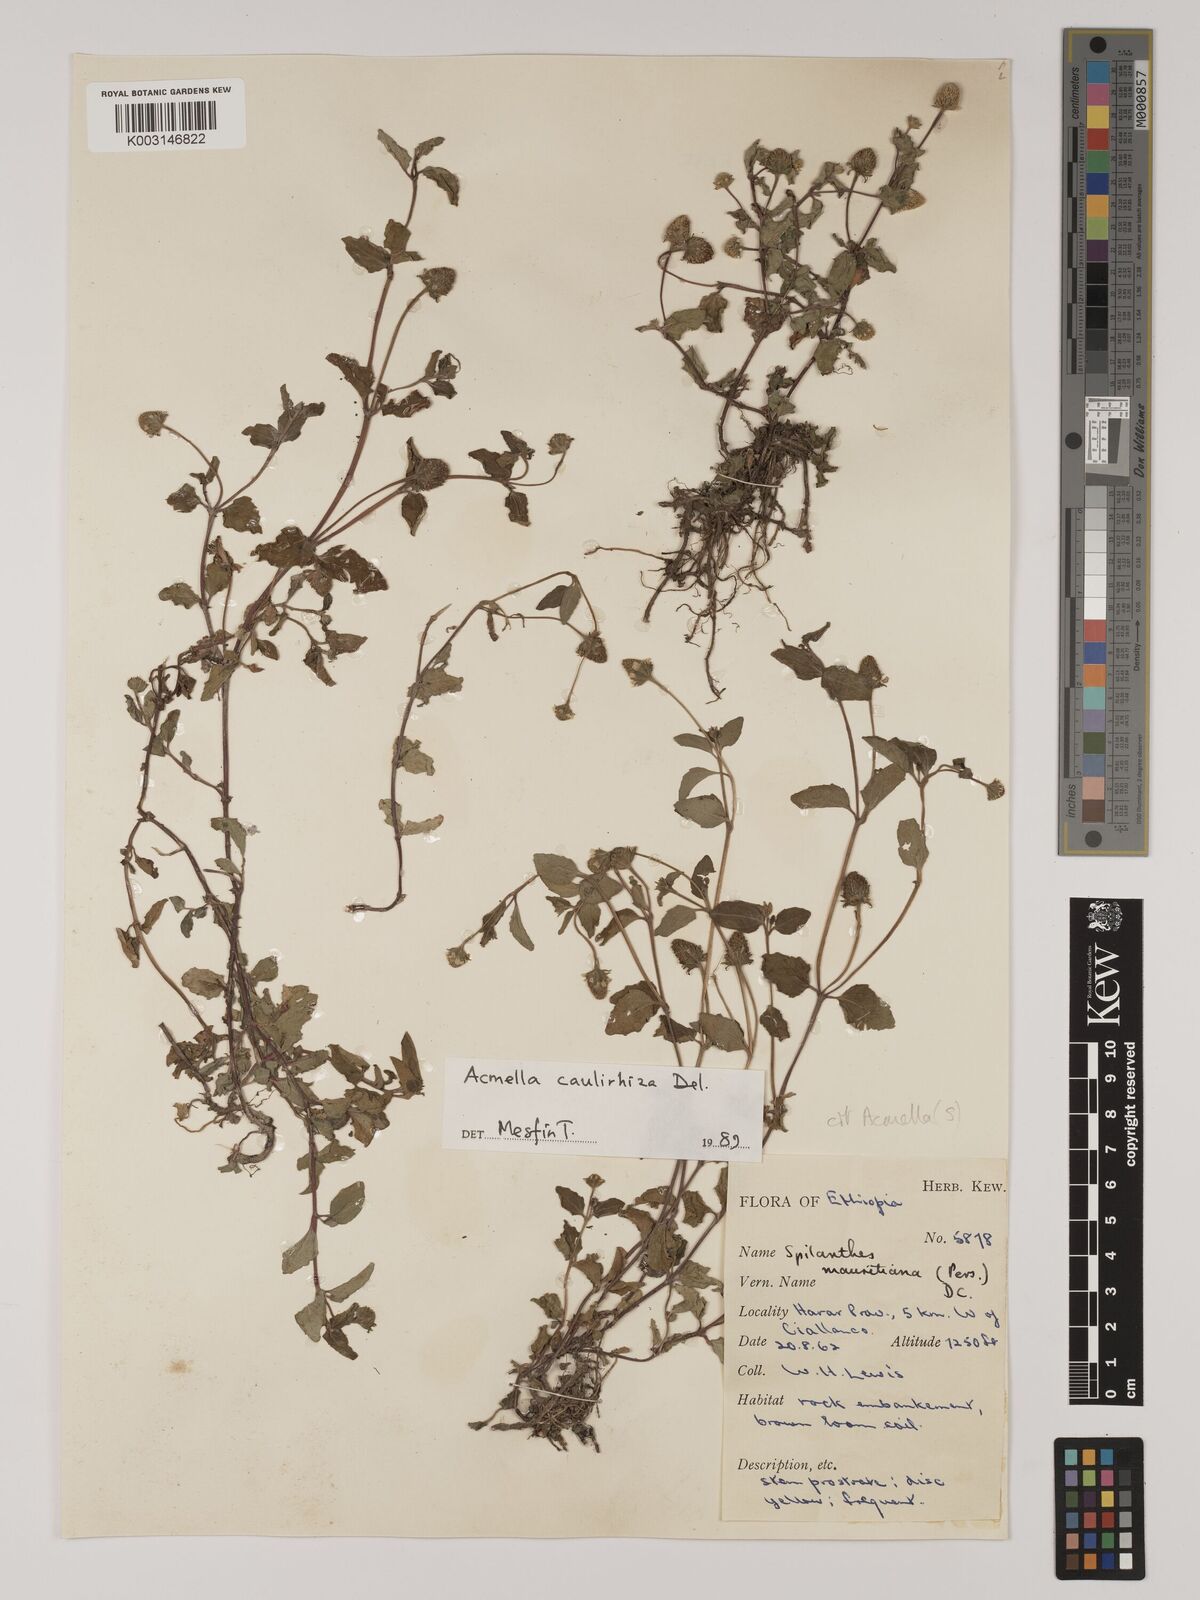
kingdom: Plantae
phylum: Tracheophyta
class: Magnoliopsida
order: Asterales
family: Asteraceae
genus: Blainvillea
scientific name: Blainvillea acmella
